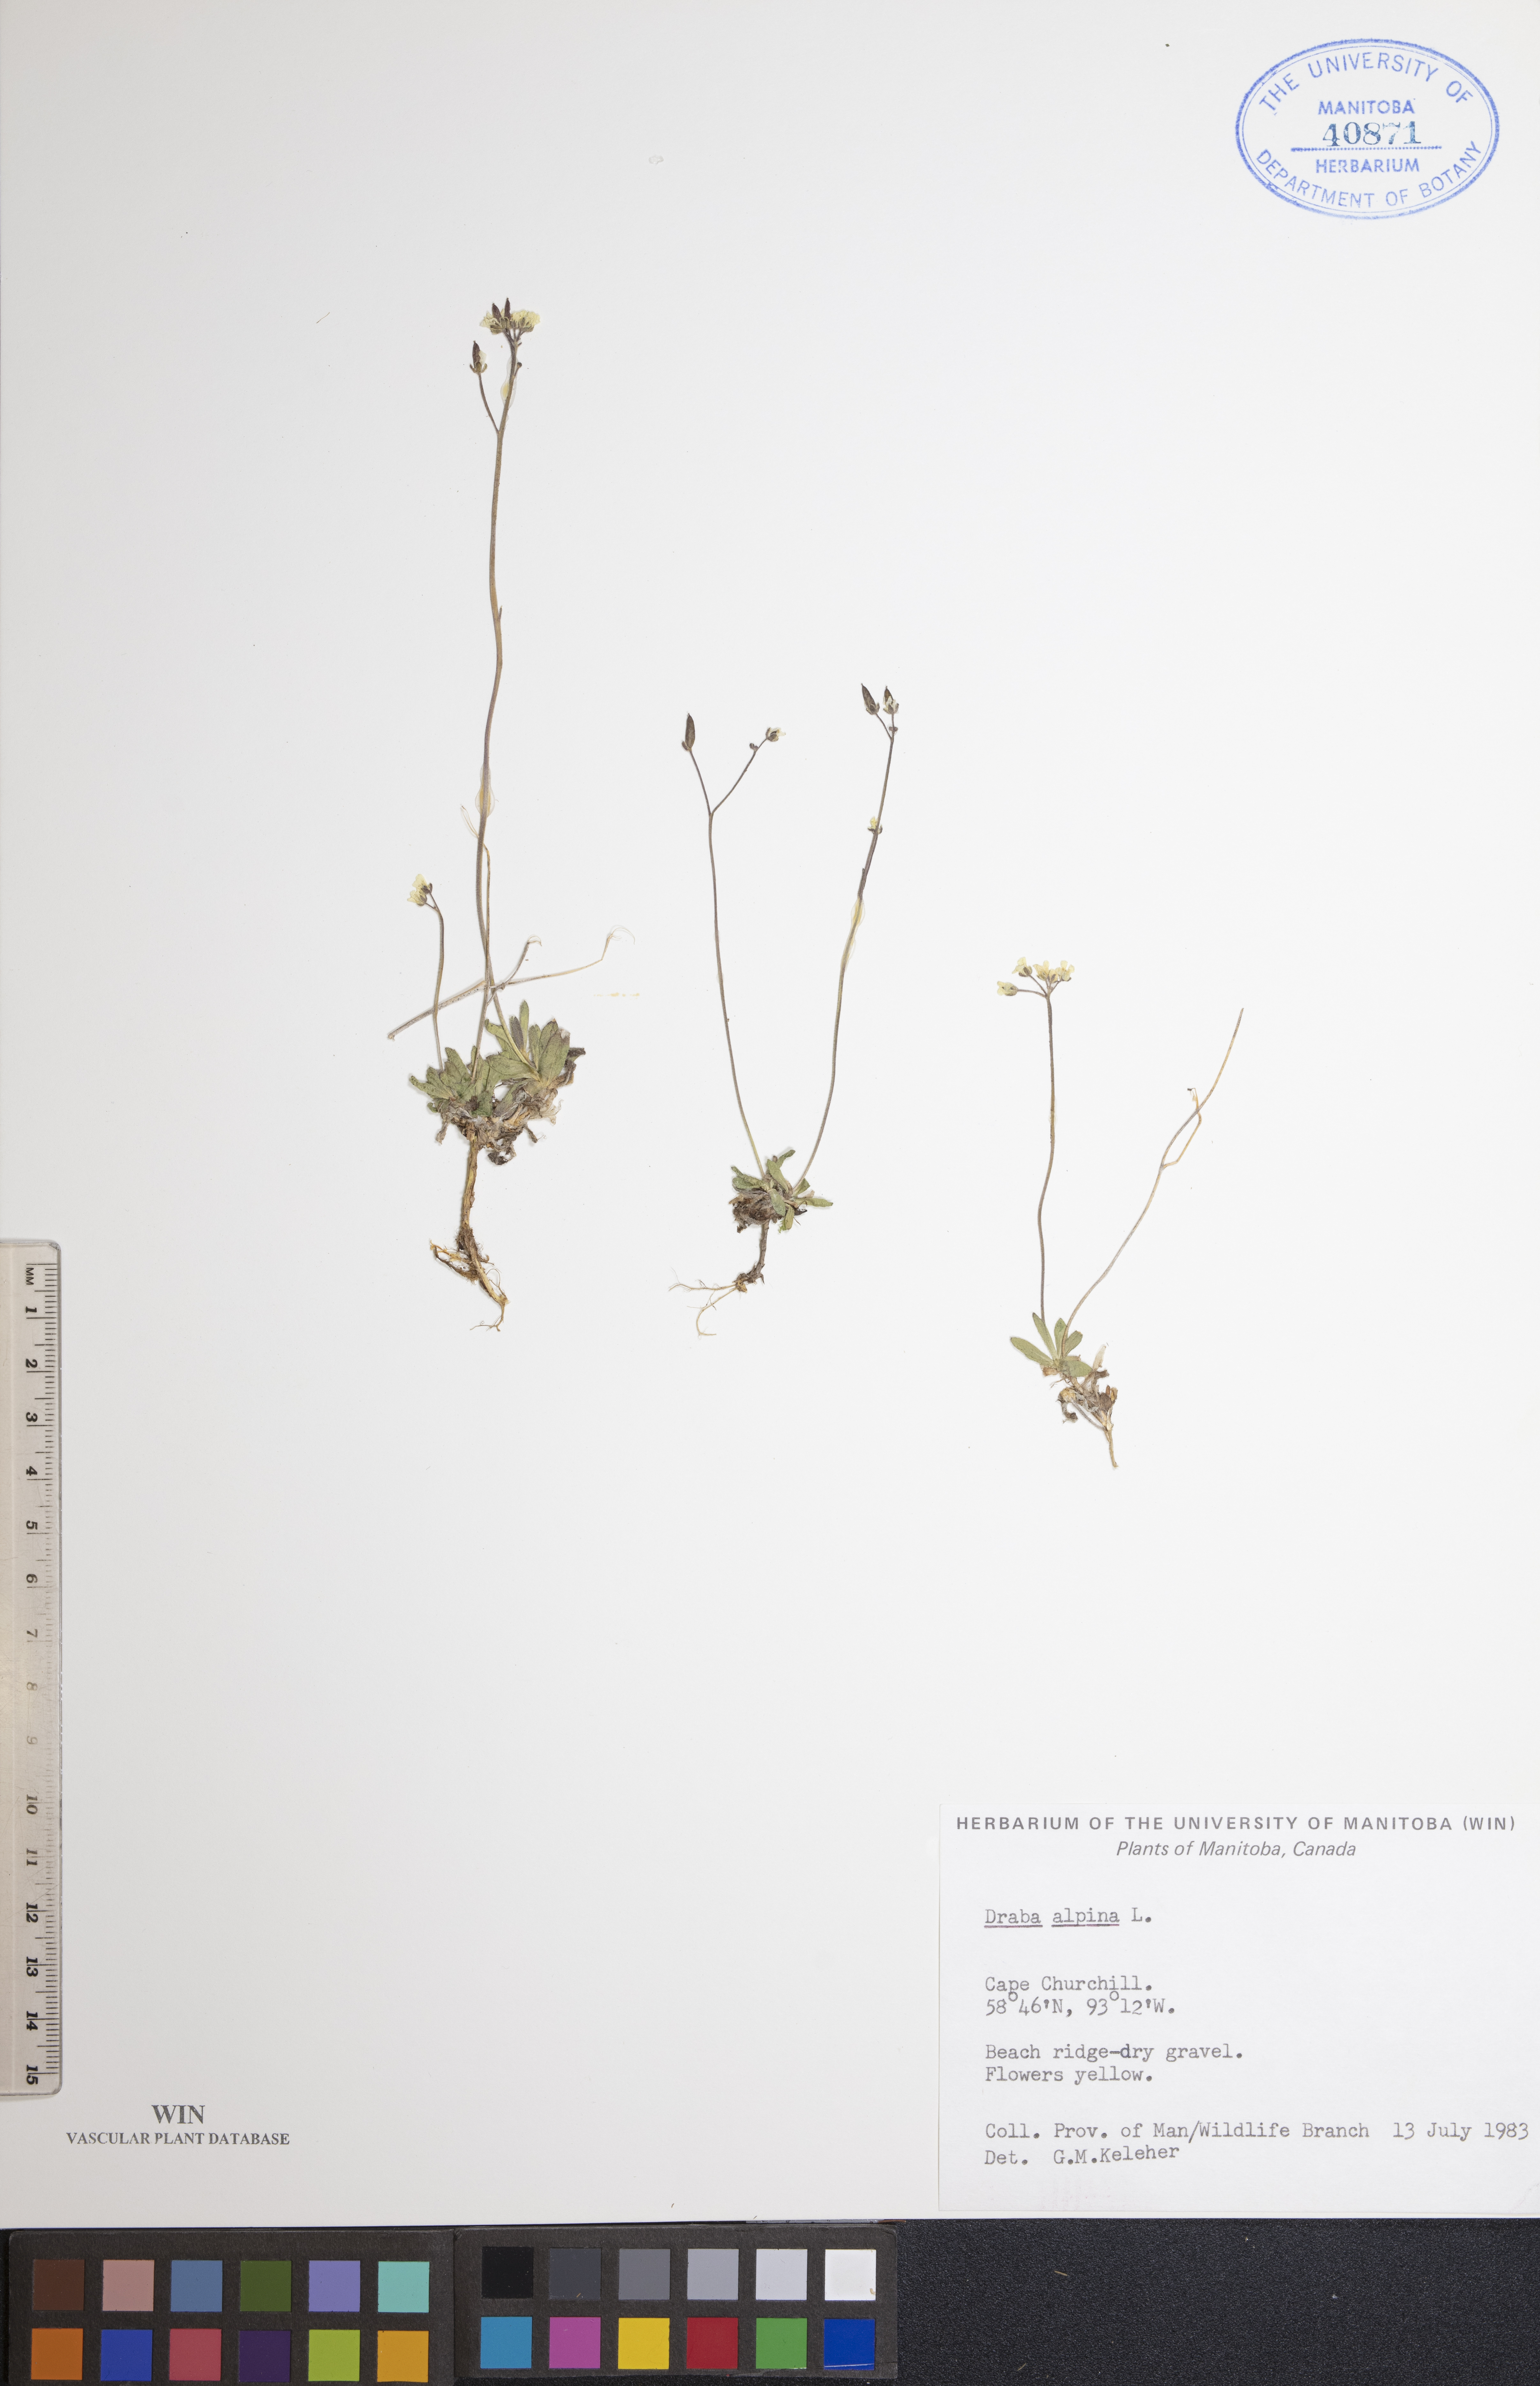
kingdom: Plantae
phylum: Tracheophyta
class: Magnoliopsida
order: Brassicales
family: Brassicaceae
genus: Draba
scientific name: Draba alpina
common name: Alpine draba
